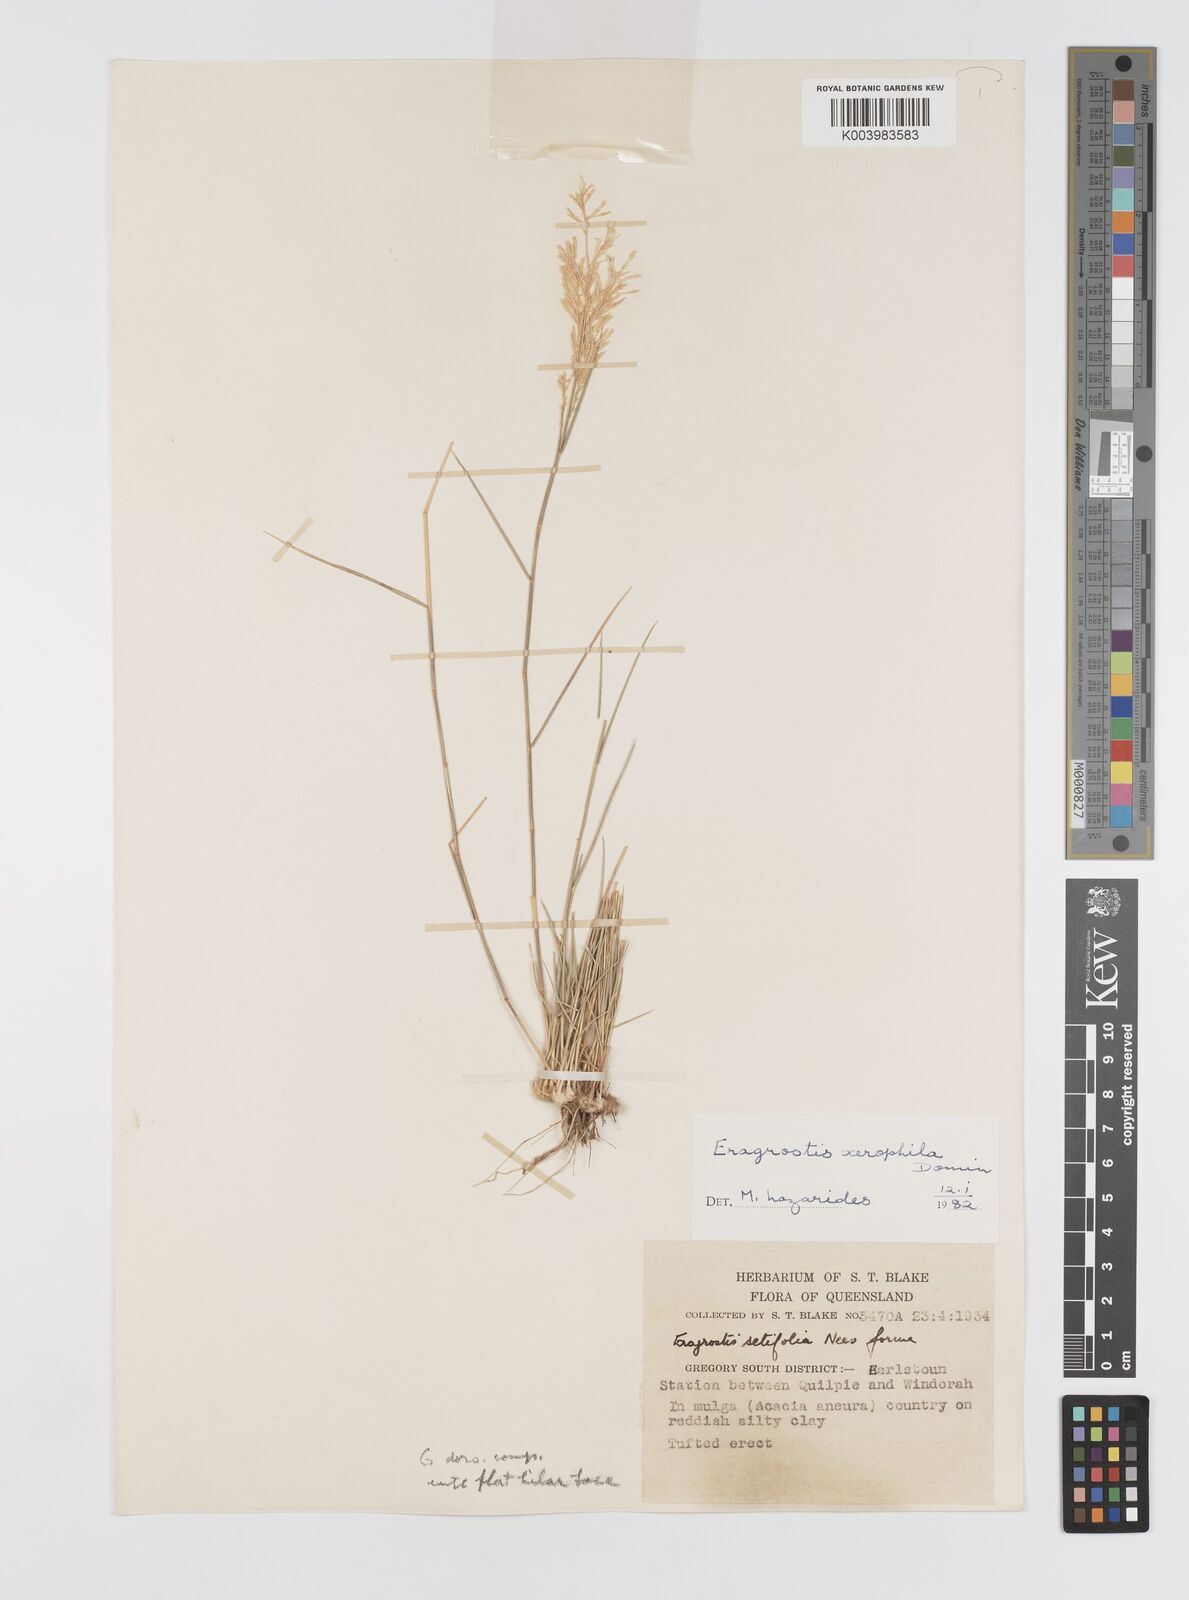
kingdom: Plantae
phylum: Tracheophyta
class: Liliopsida
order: Poales
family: Poaceae
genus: Eragrostis
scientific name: Eragrostis xerophila
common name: Wire wandarrie grass
